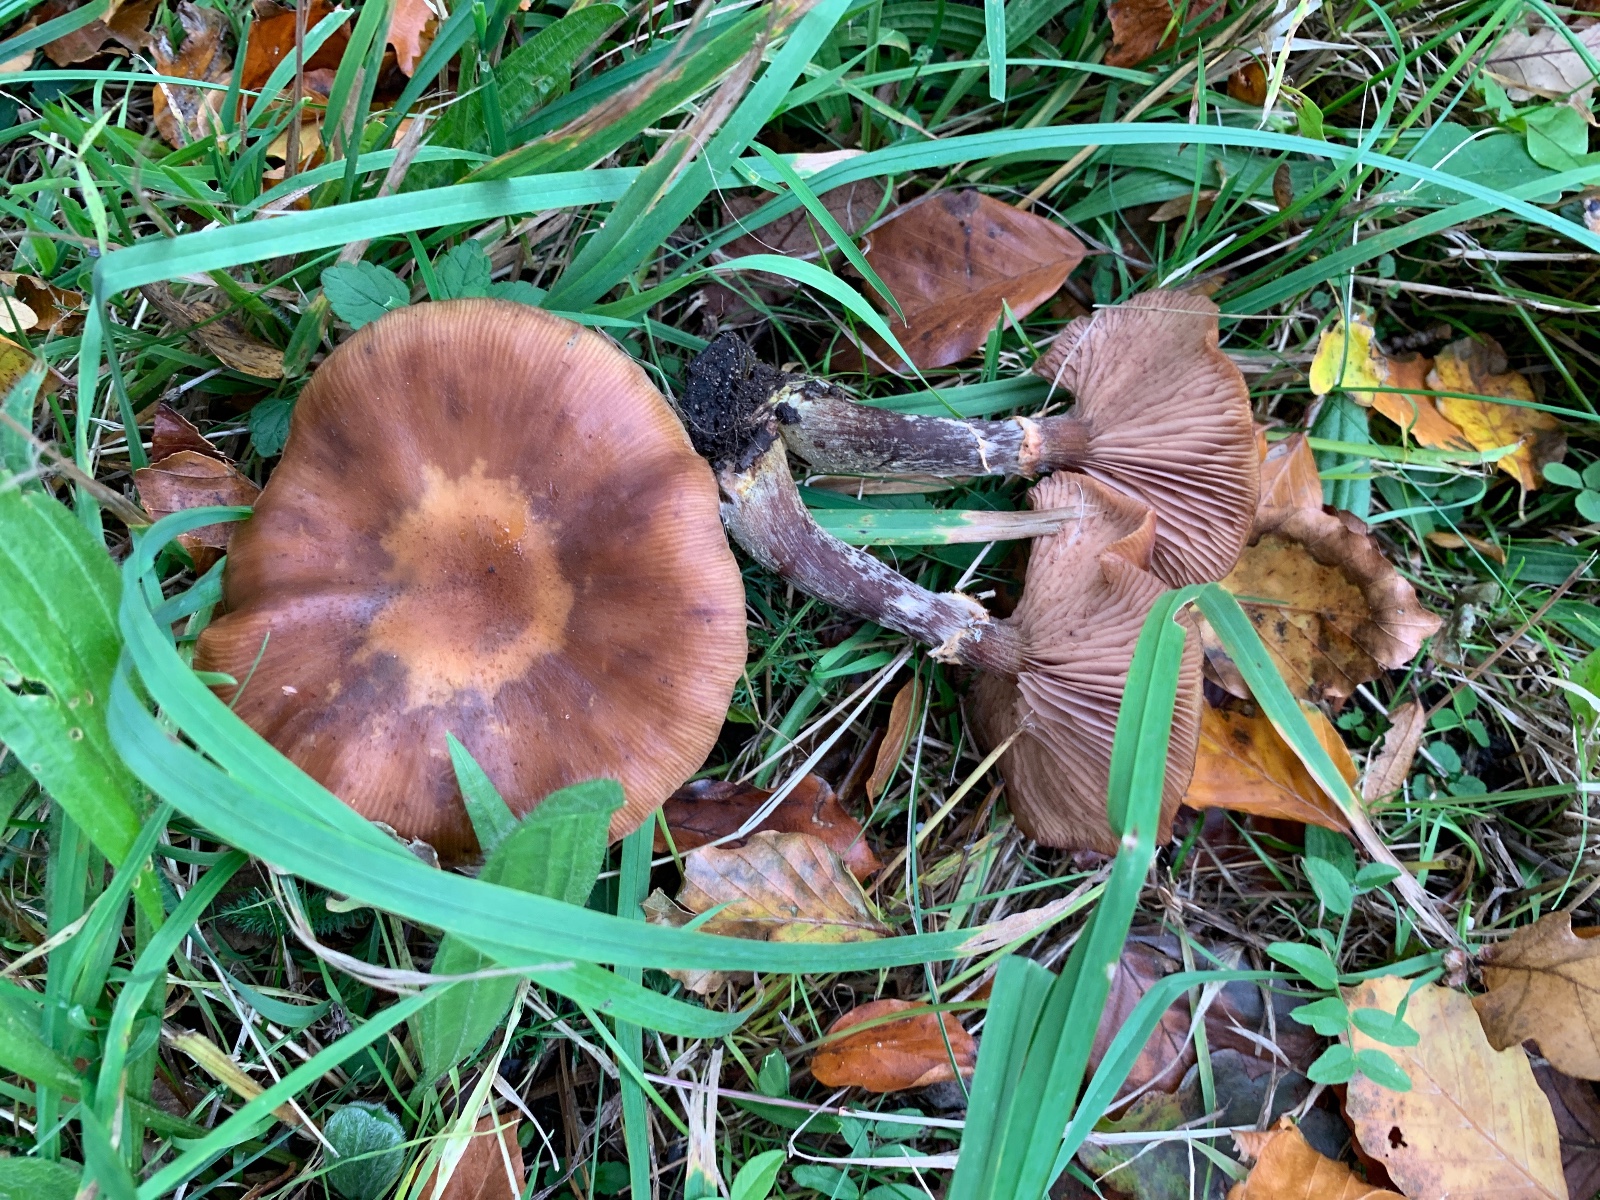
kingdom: Fungi
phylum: Basidiomycota
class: Agaricomycetes
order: Agaricales
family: Physalacriaceae
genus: Armillaria
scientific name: Armillaria lutea
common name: køllestokket honningsvamp
